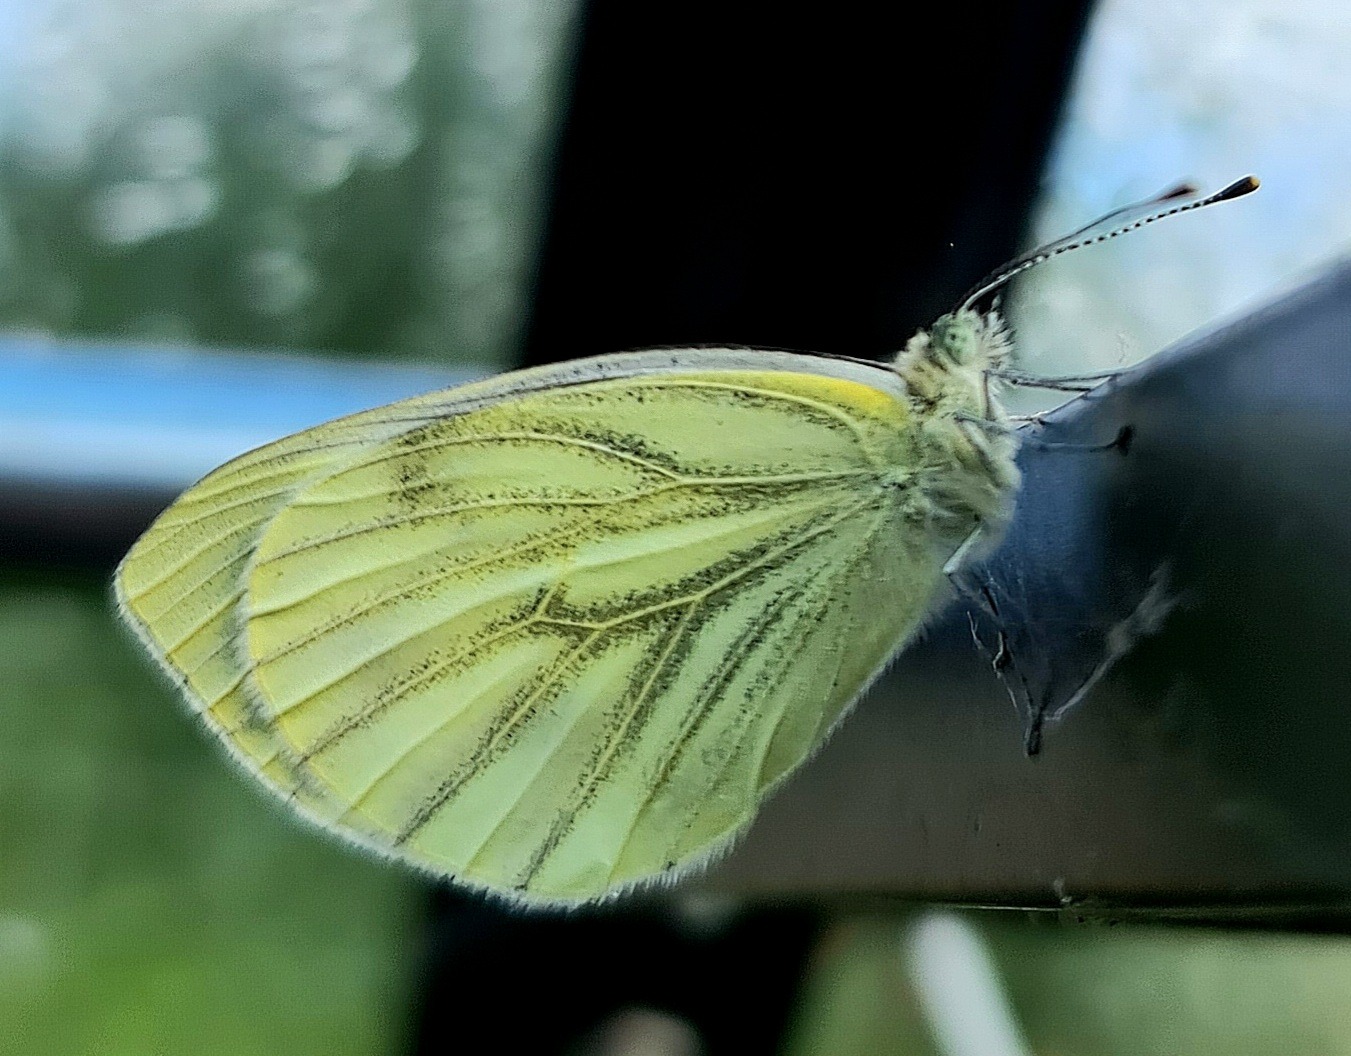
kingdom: Animalia
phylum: Arthropoda
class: Insecta
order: Lepidoptera
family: Pieridae
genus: Pieris
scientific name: Pieris napi
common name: Grønåret kålsommerfugl
